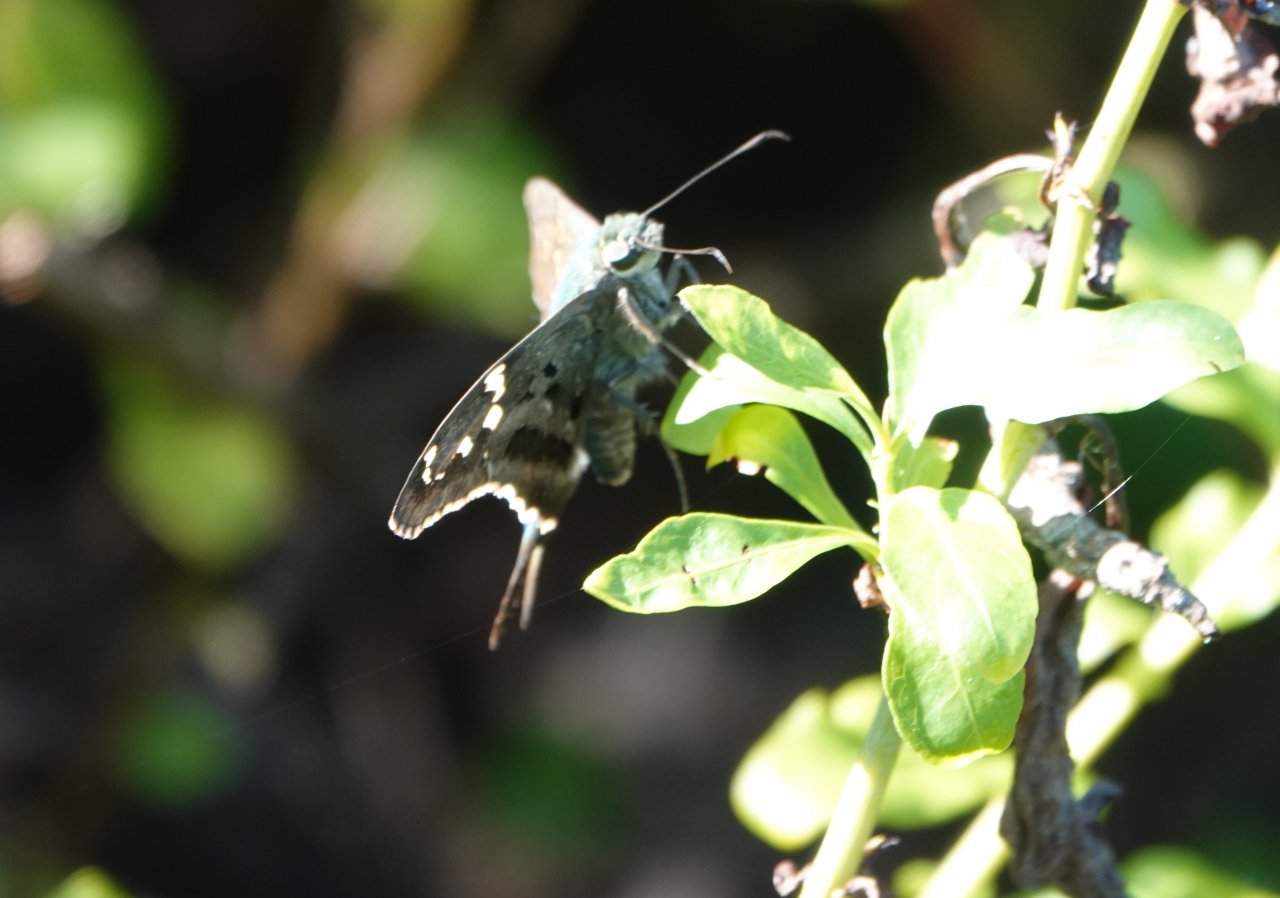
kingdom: Animalia
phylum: Arthropoda
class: Insecta
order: Lepidoptera
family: Hesperiidae
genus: Urbanus
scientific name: Urbanus proteus
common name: Long-tailed Skipper
